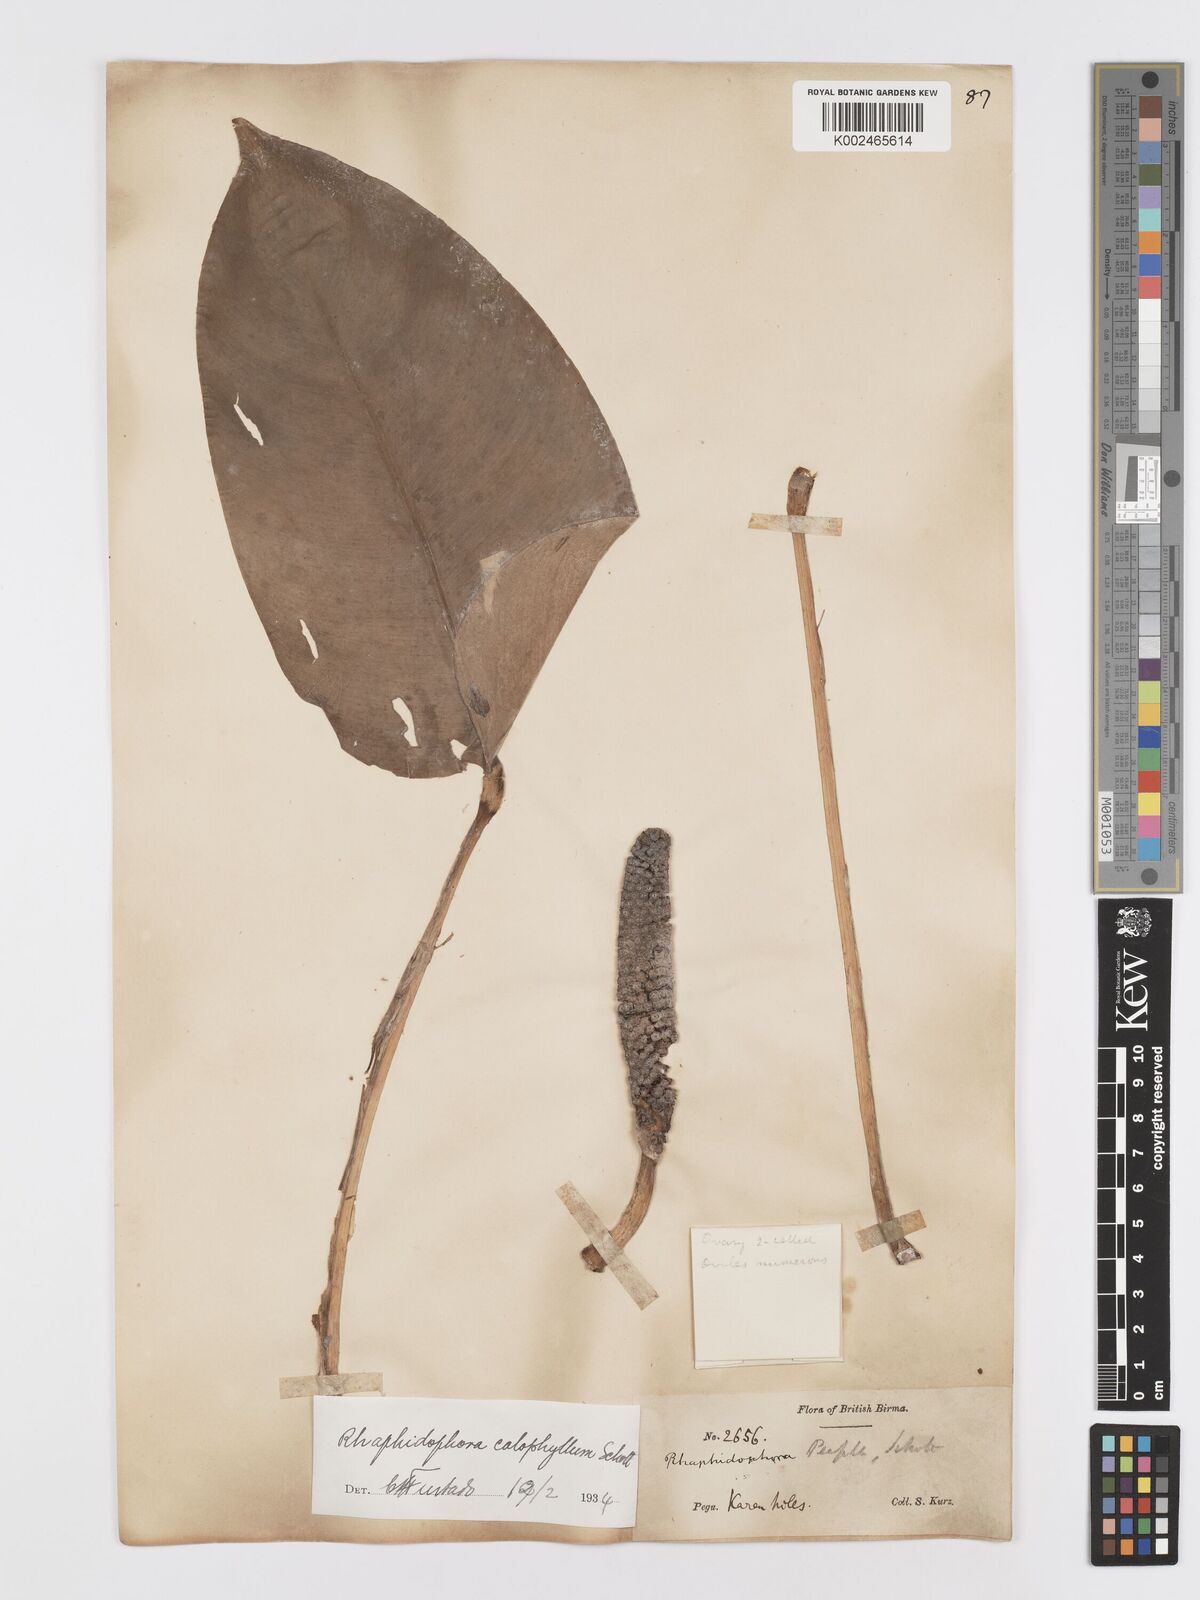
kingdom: Plantae
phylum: Tracheophyta
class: Liliopsida
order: Alismatales
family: Araceae
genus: Rhaphidophora
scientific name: Rhaphidophora calophylla
